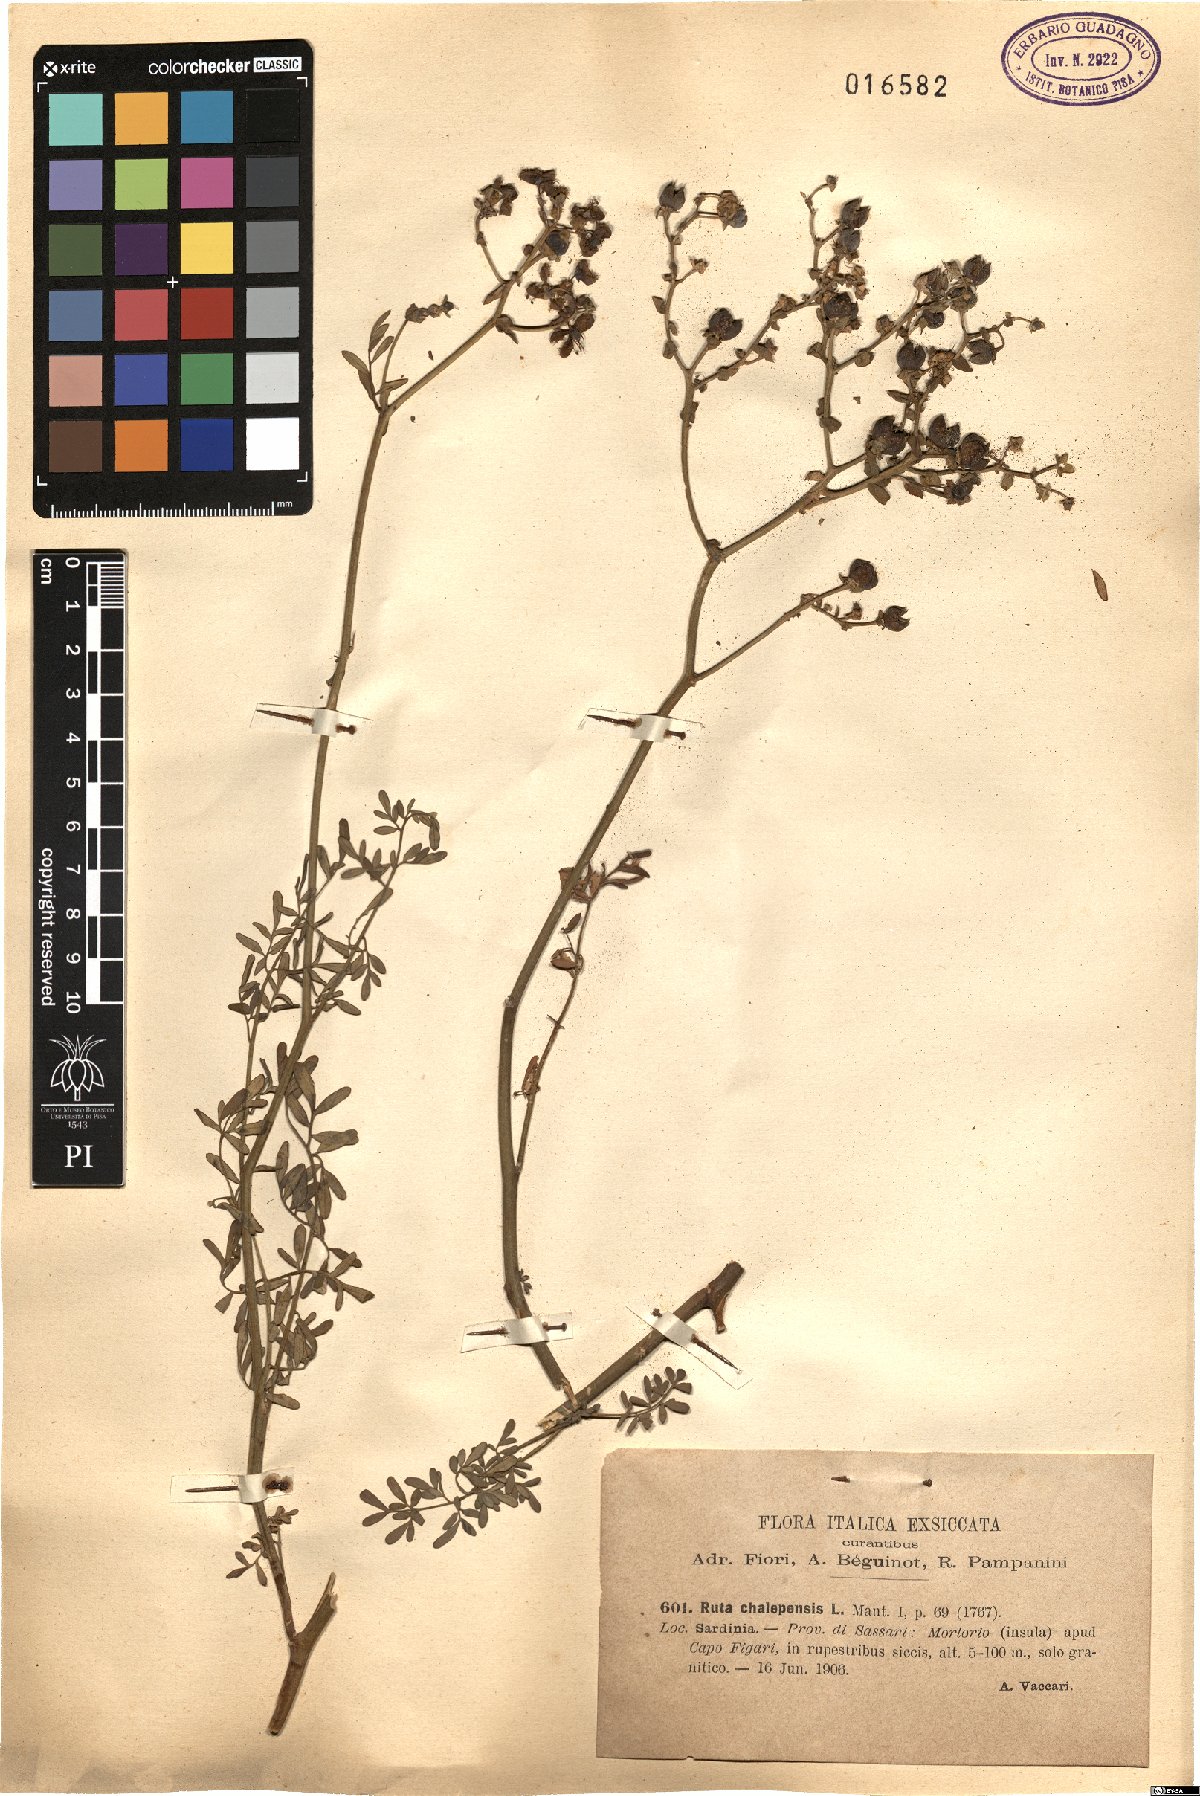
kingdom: Plantae
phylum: Tracheophyta
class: Magnoliopsida
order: Sapindales
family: Rutaceae
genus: Ruta
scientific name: Ruta chalepensis
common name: Fringed rue
